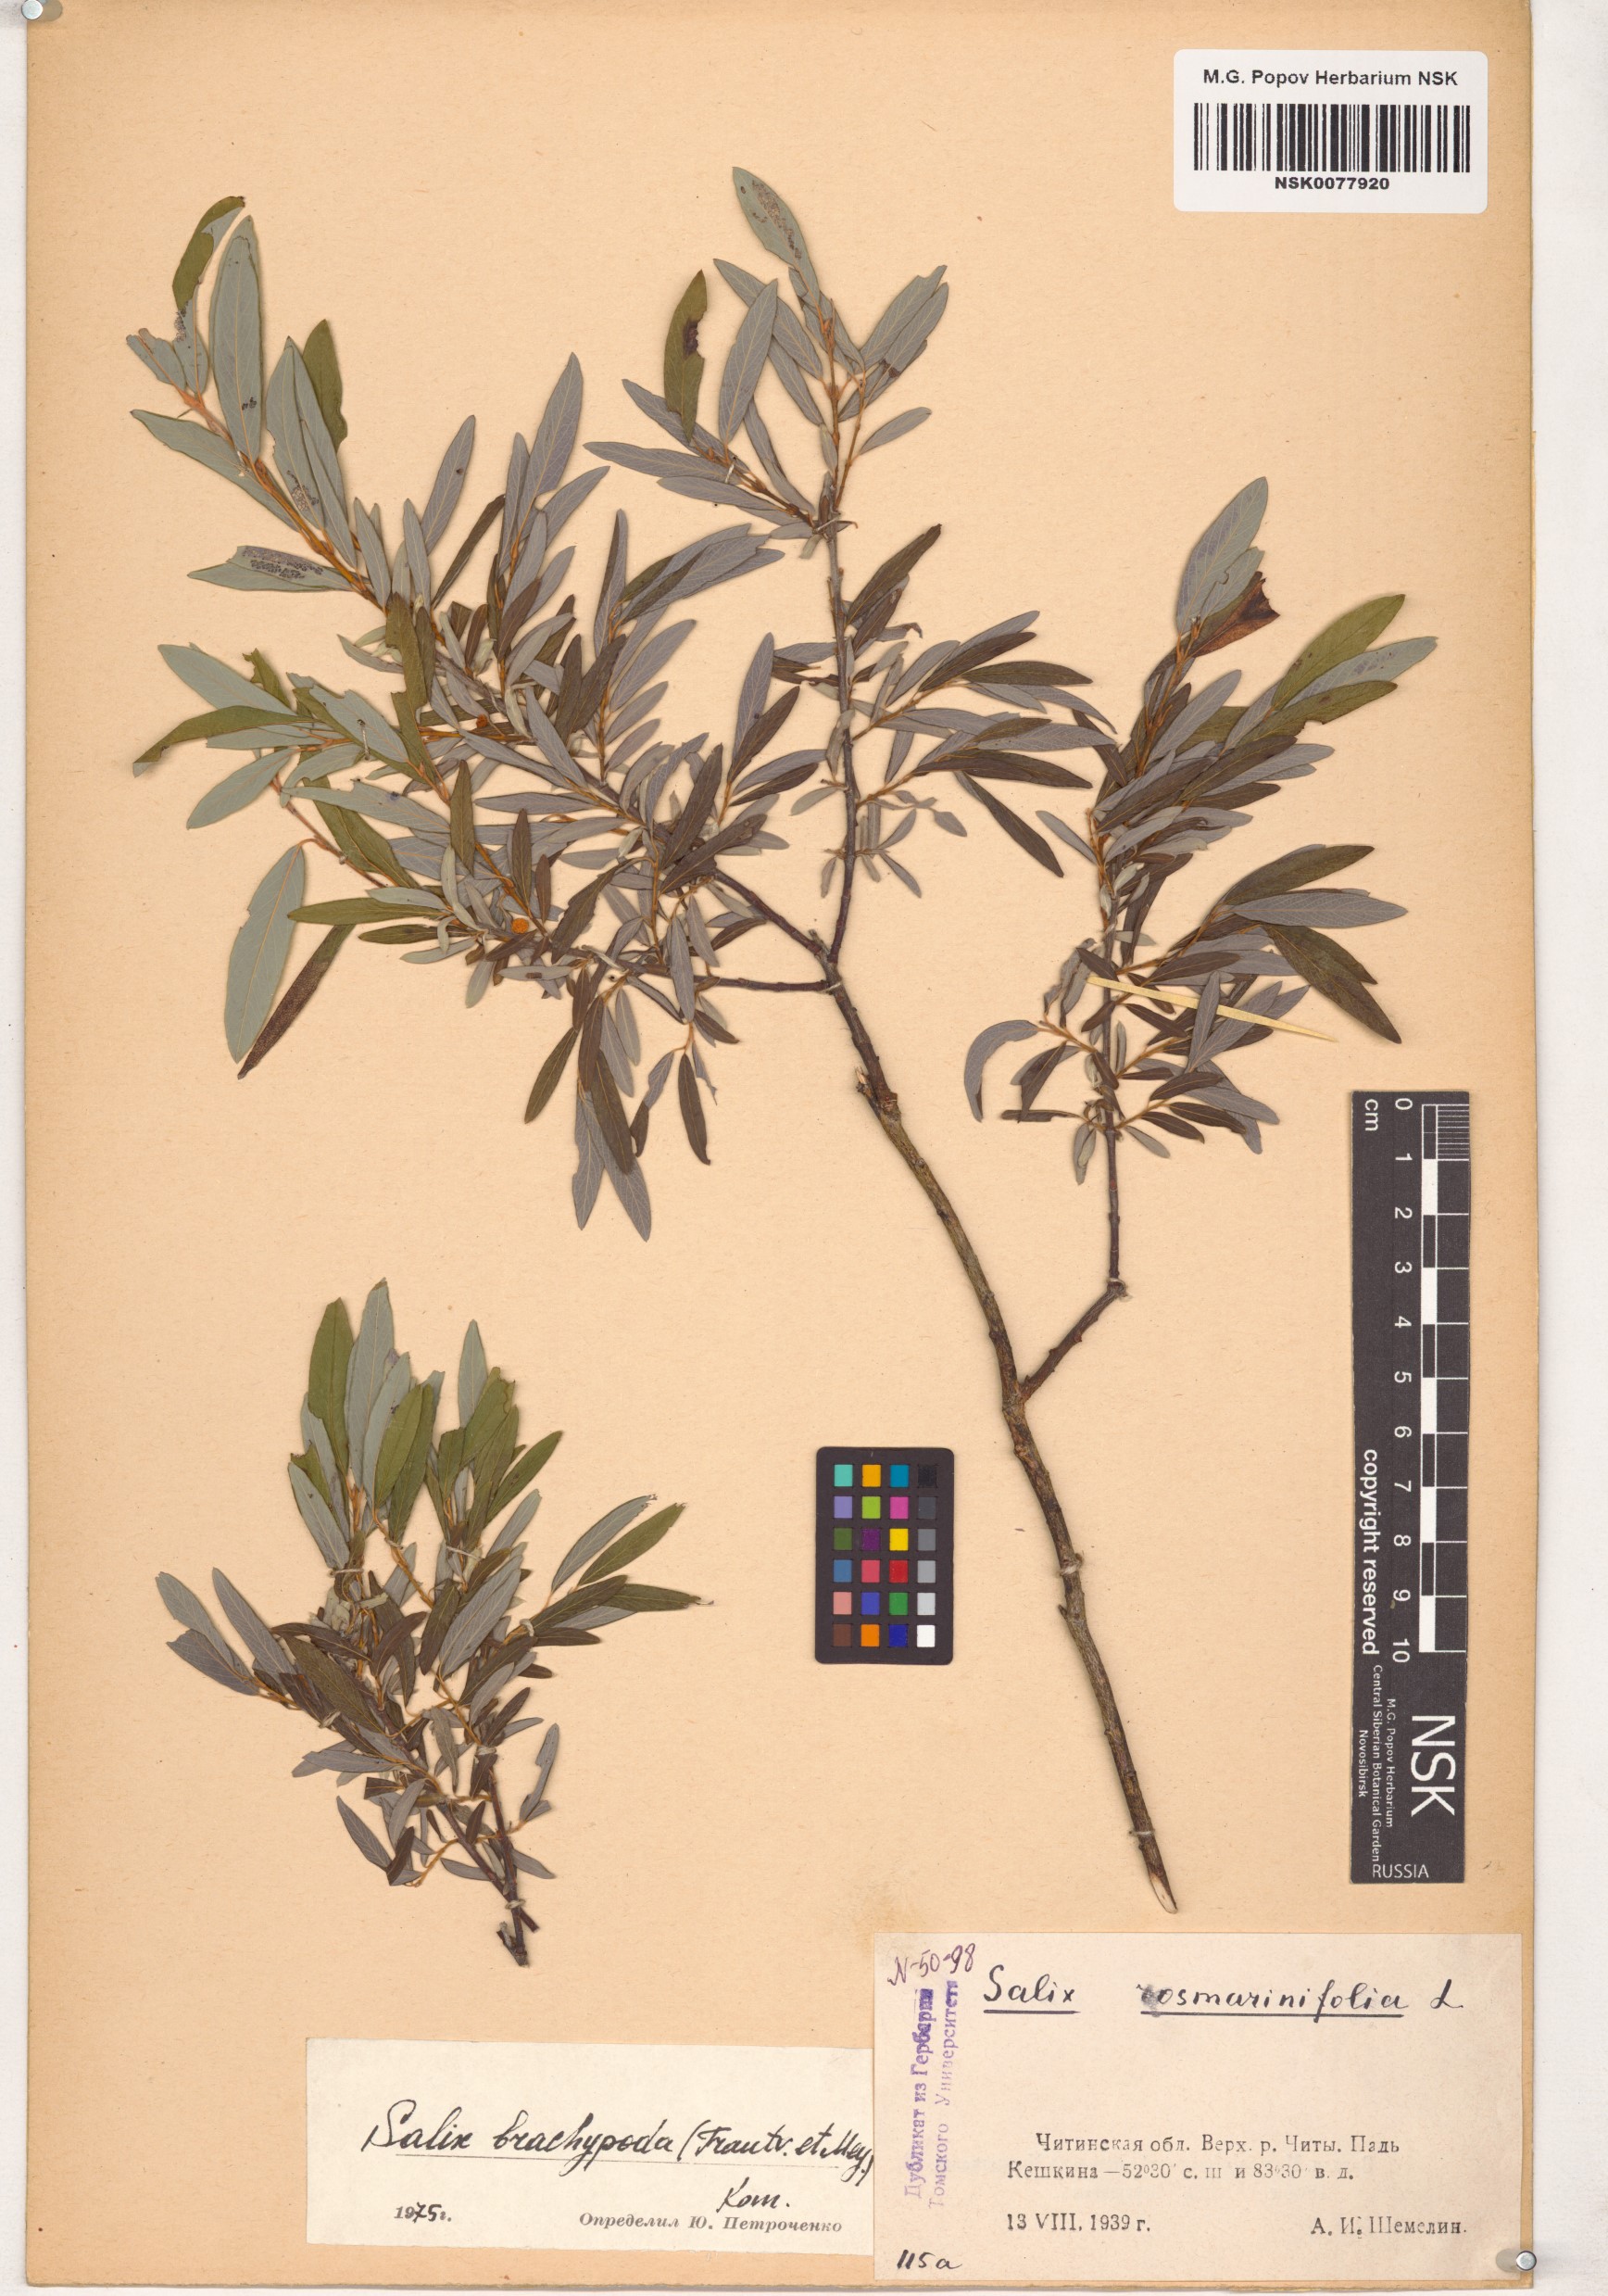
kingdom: Plantae
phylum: Tracheophyta
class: Magnoliopsida
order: Malpighiales
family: Salicaceae
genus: Salix
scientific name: Salix brachypoda
